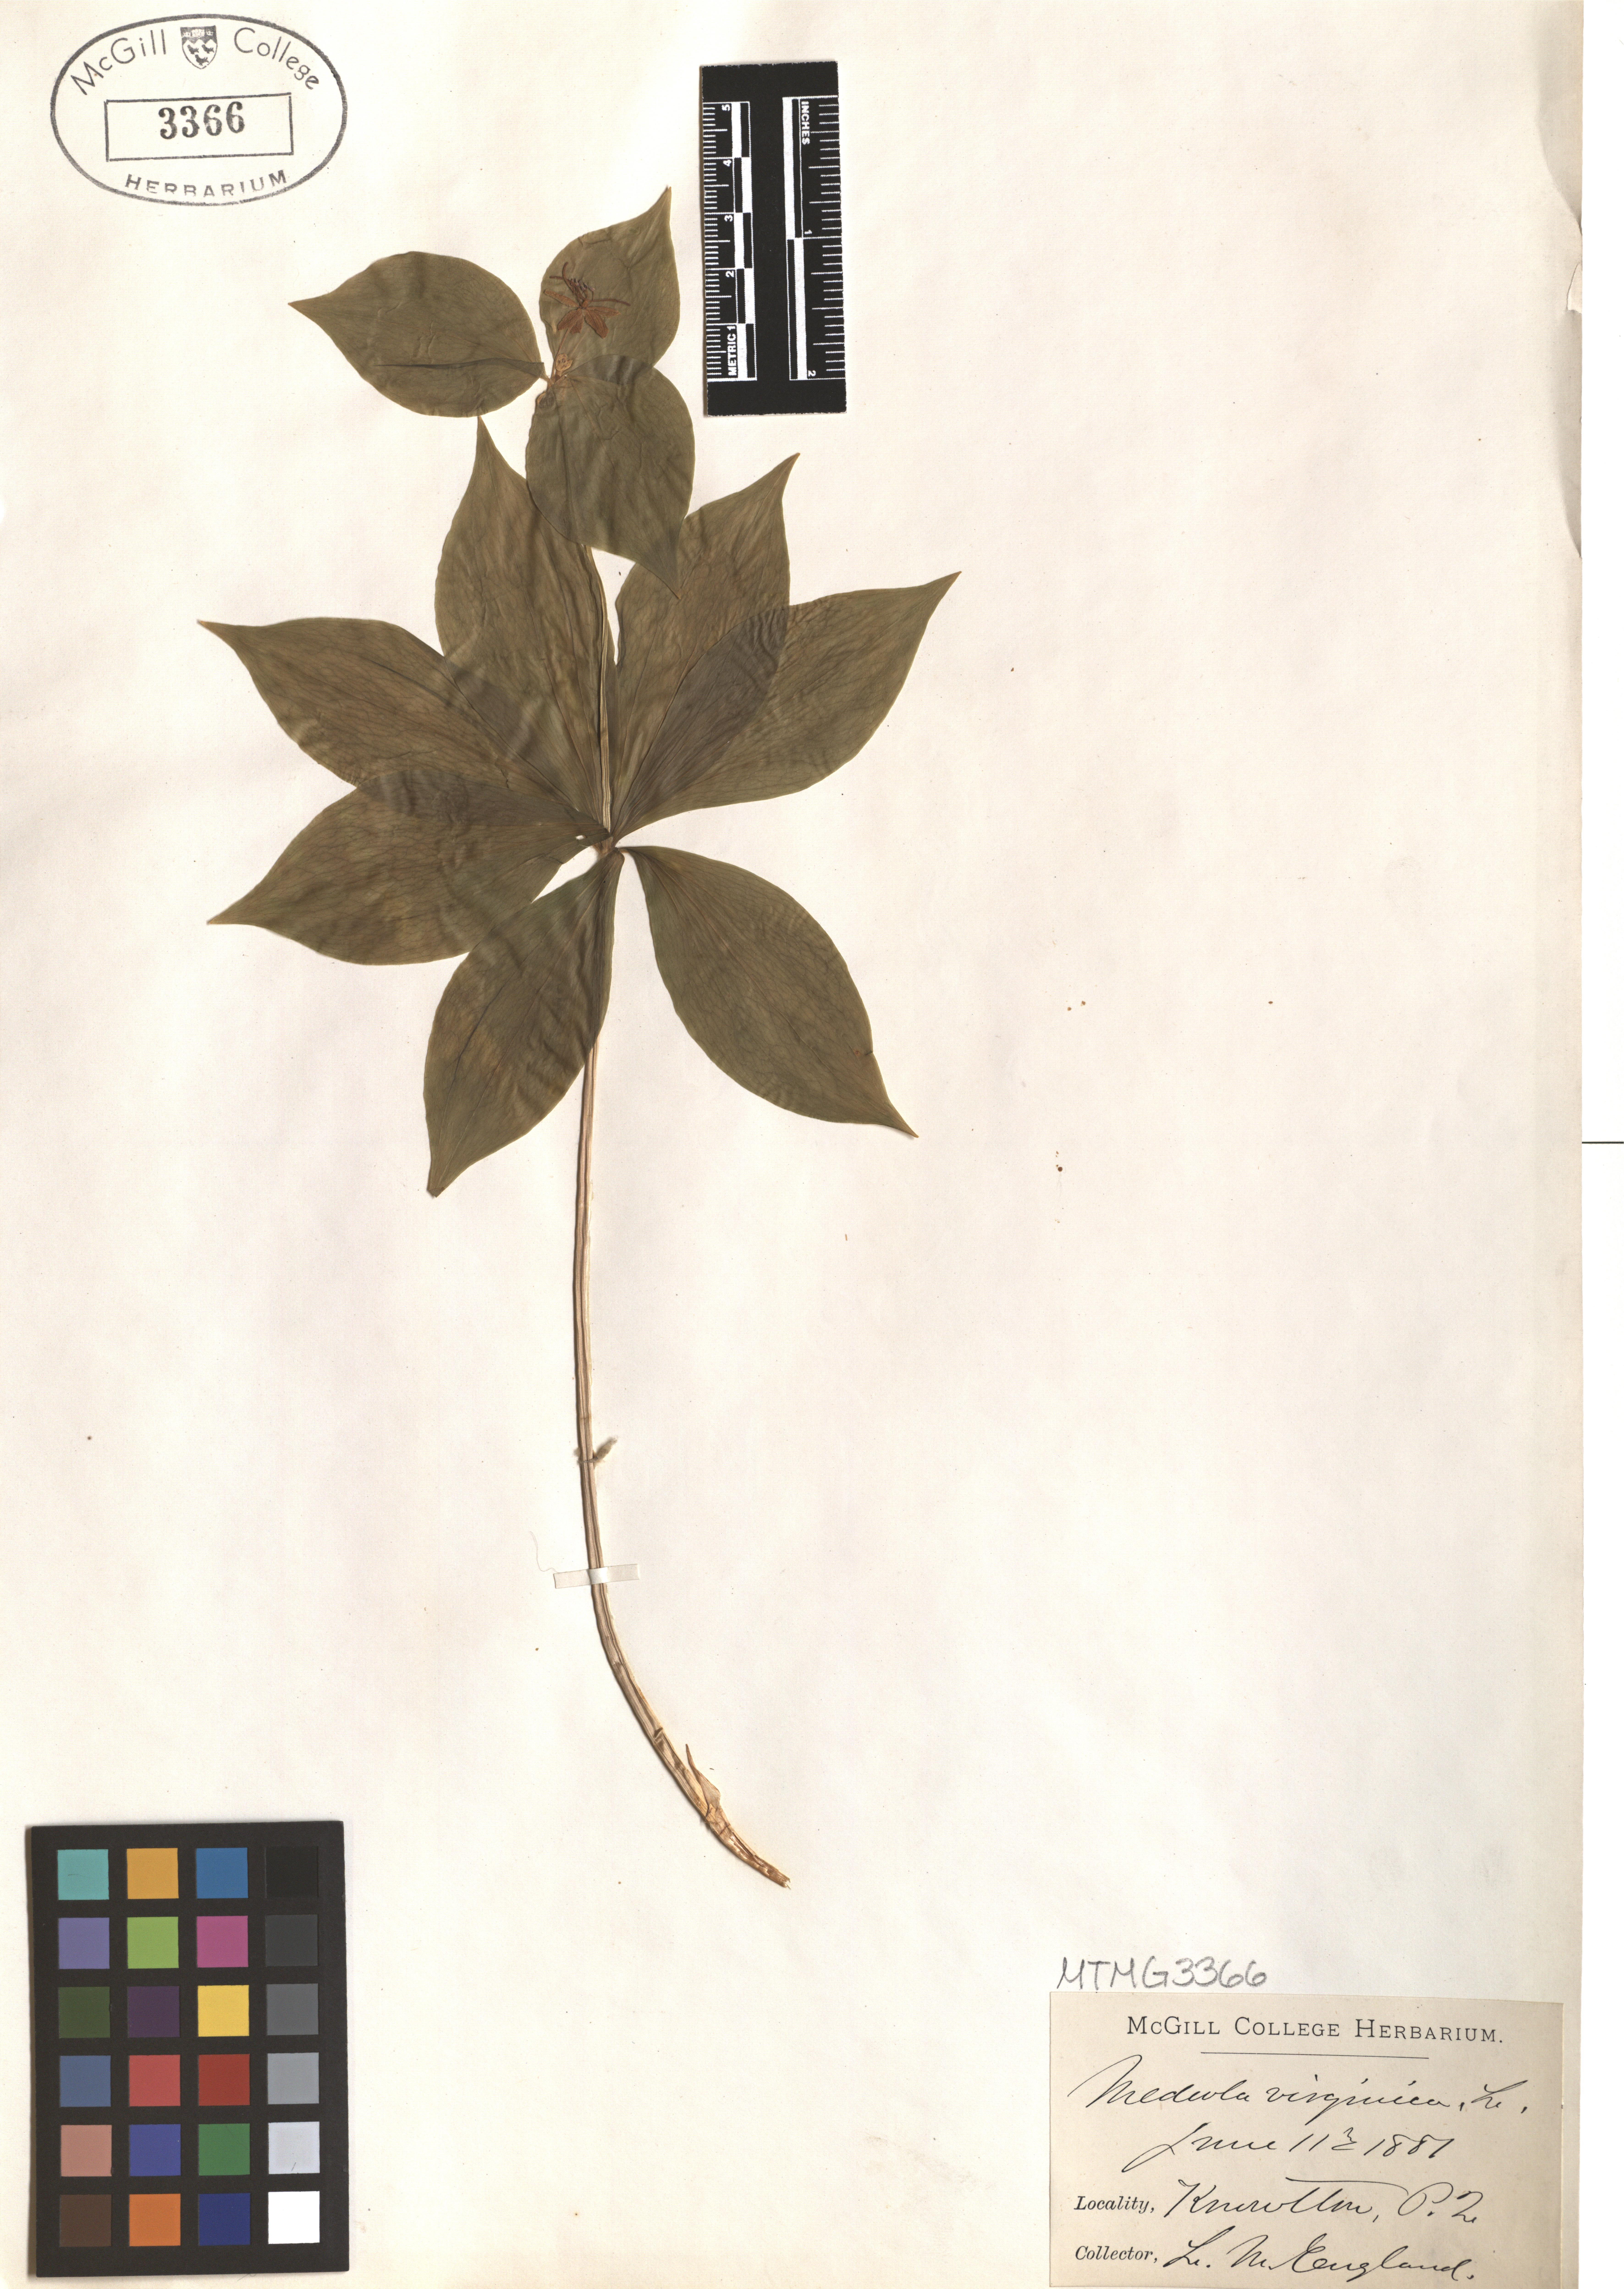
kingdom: Plantae
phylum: Tracheophyta
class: Liliopsida
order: Liliales
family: Liliaceae
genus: Medeola
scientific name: Medeola virginiana
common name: Indian cucumber-root
